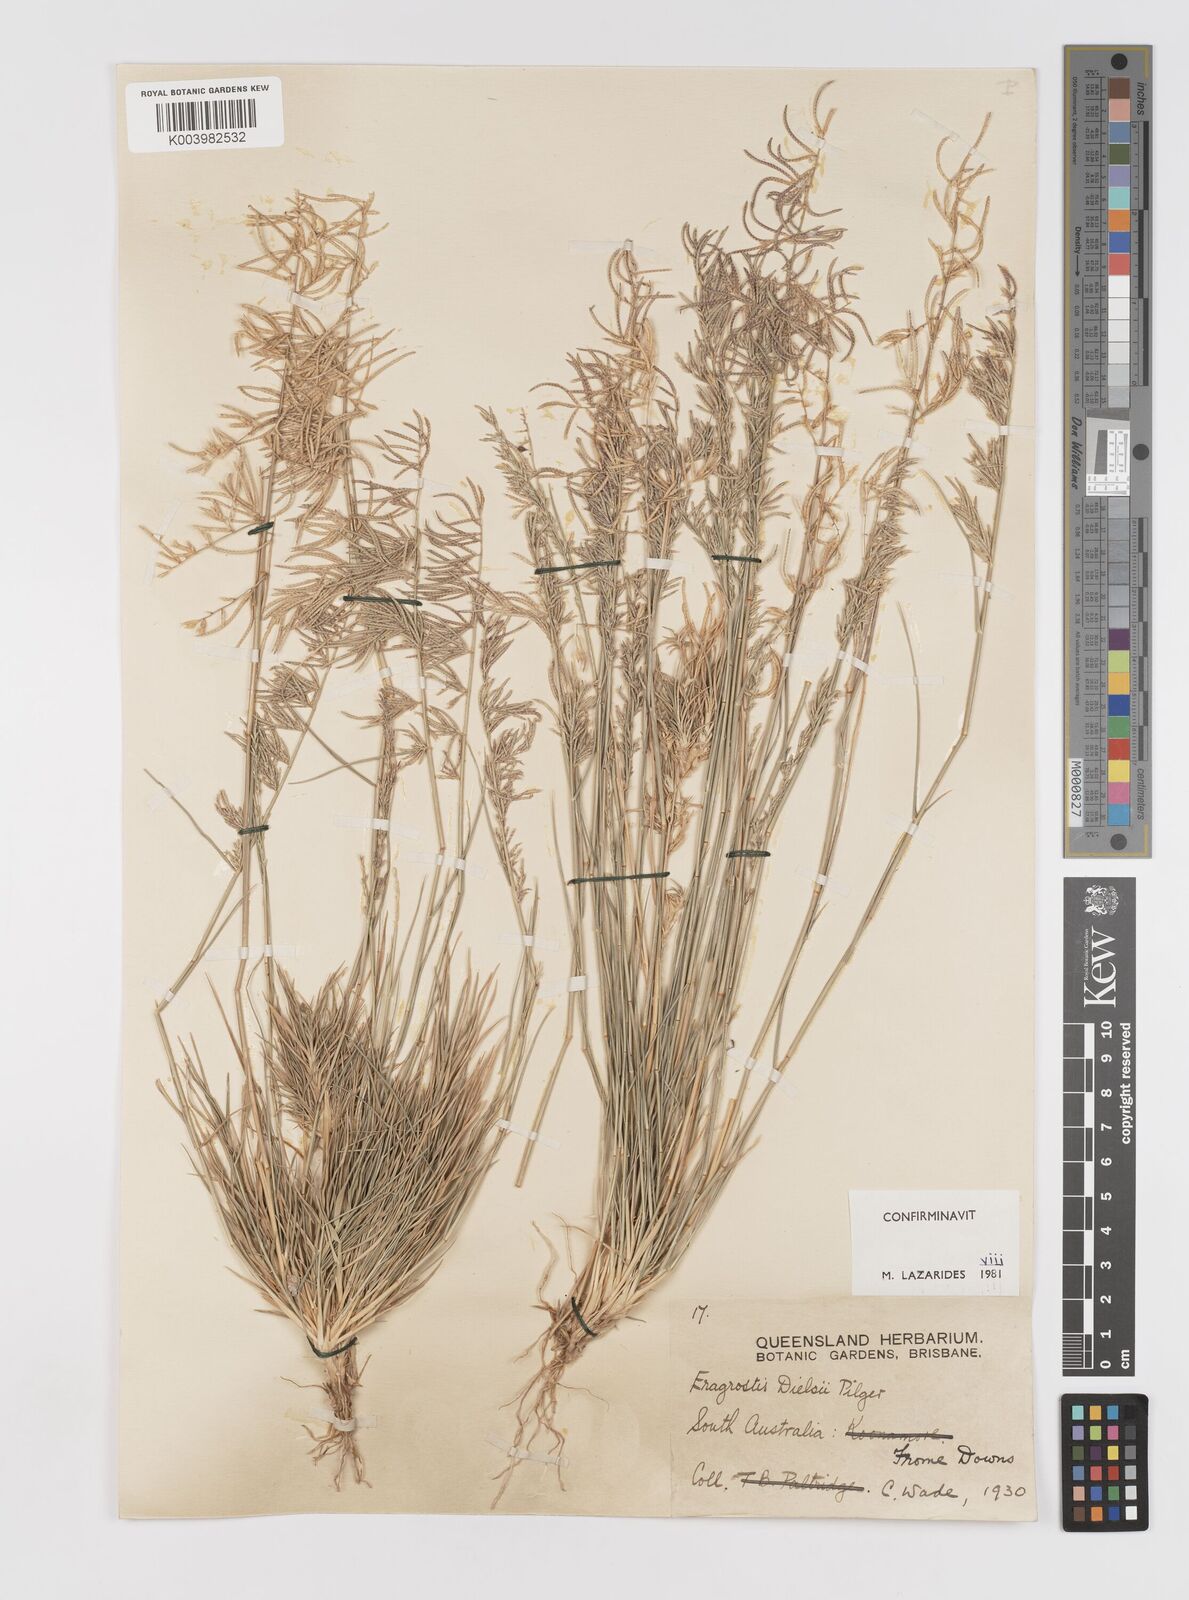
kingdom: Plantae
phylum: Tracheophyta
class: Liliopsida
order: Poales
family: Poaceae
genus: Eragrostis
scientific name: Eragrostis dielsii
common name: Lovegrass
